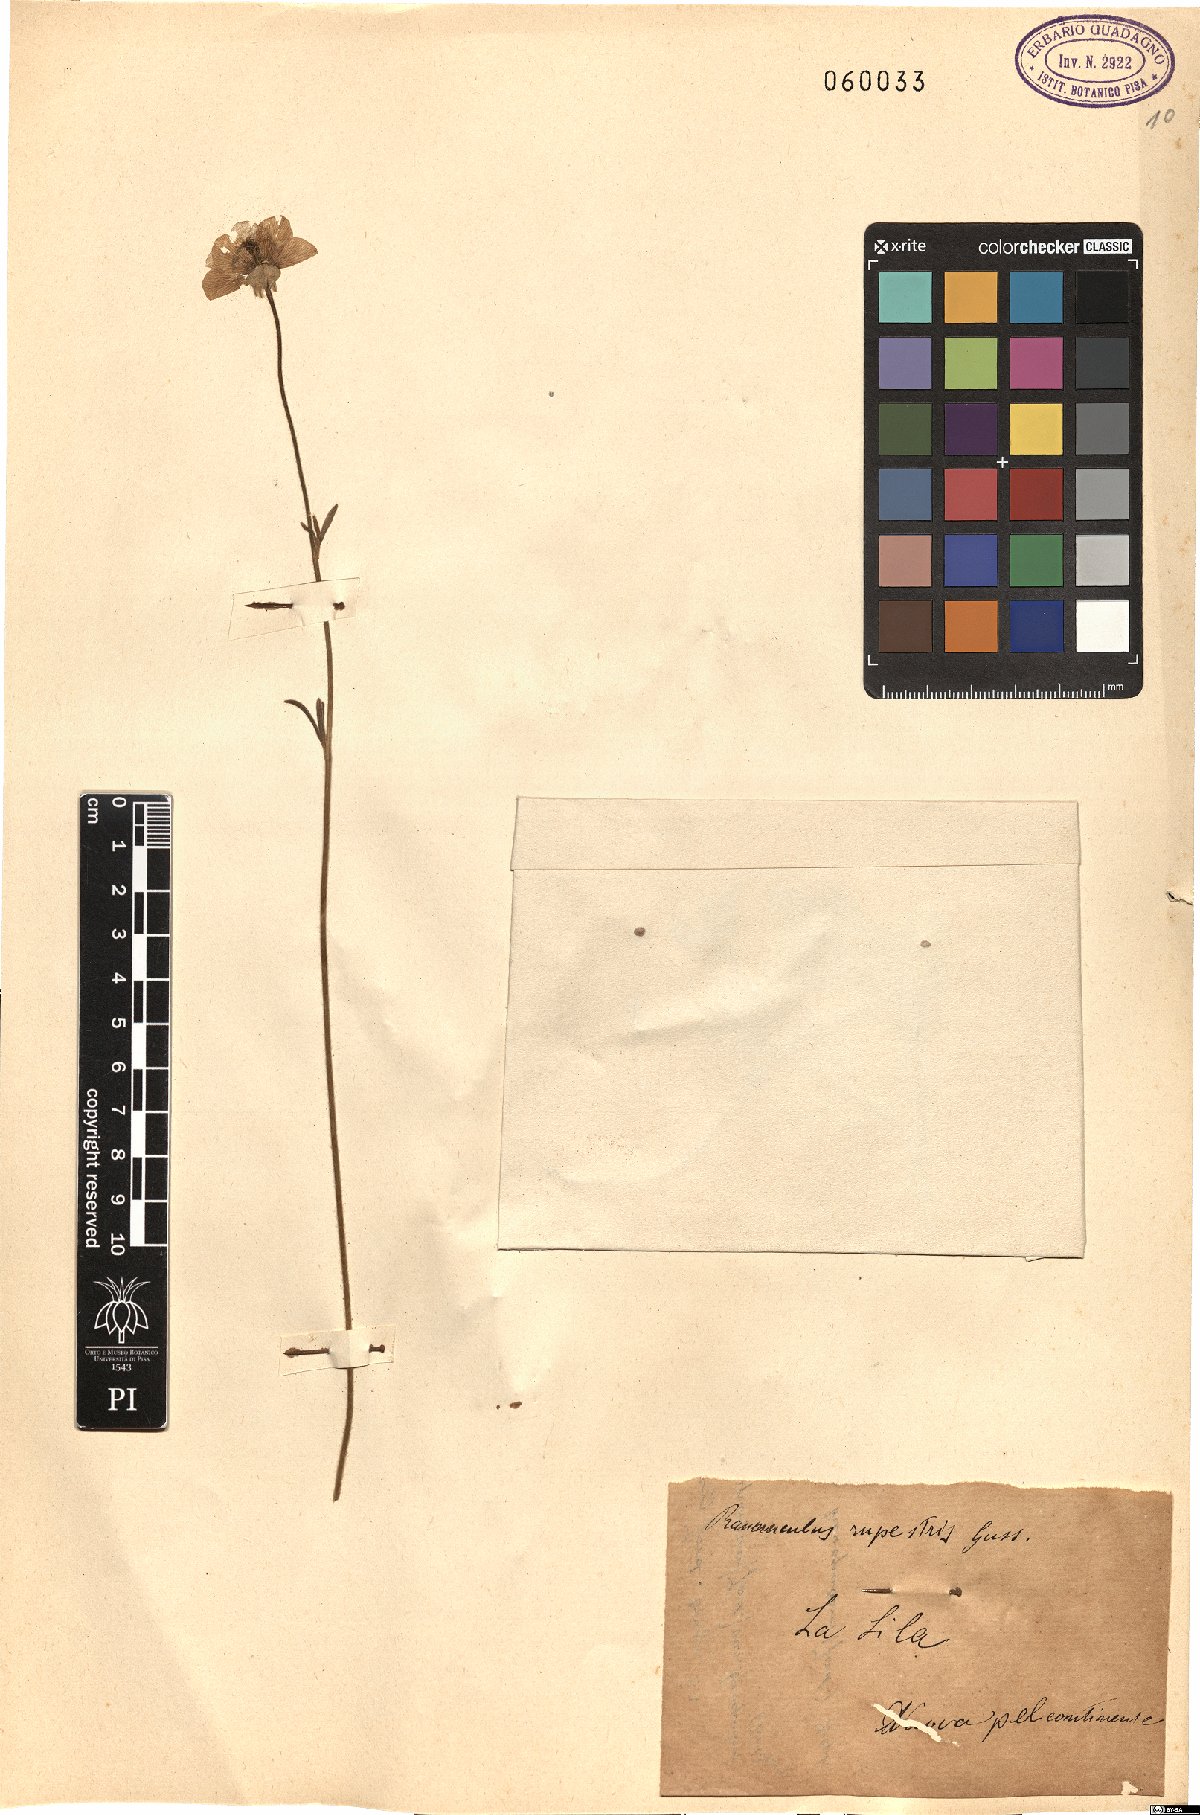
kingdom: Plantae
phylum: Tracheophyta
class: Magnoliopsida
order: Ranunculales
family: Ranunculaceae
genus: Ranunculus
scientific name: Ranunculus spicatus
